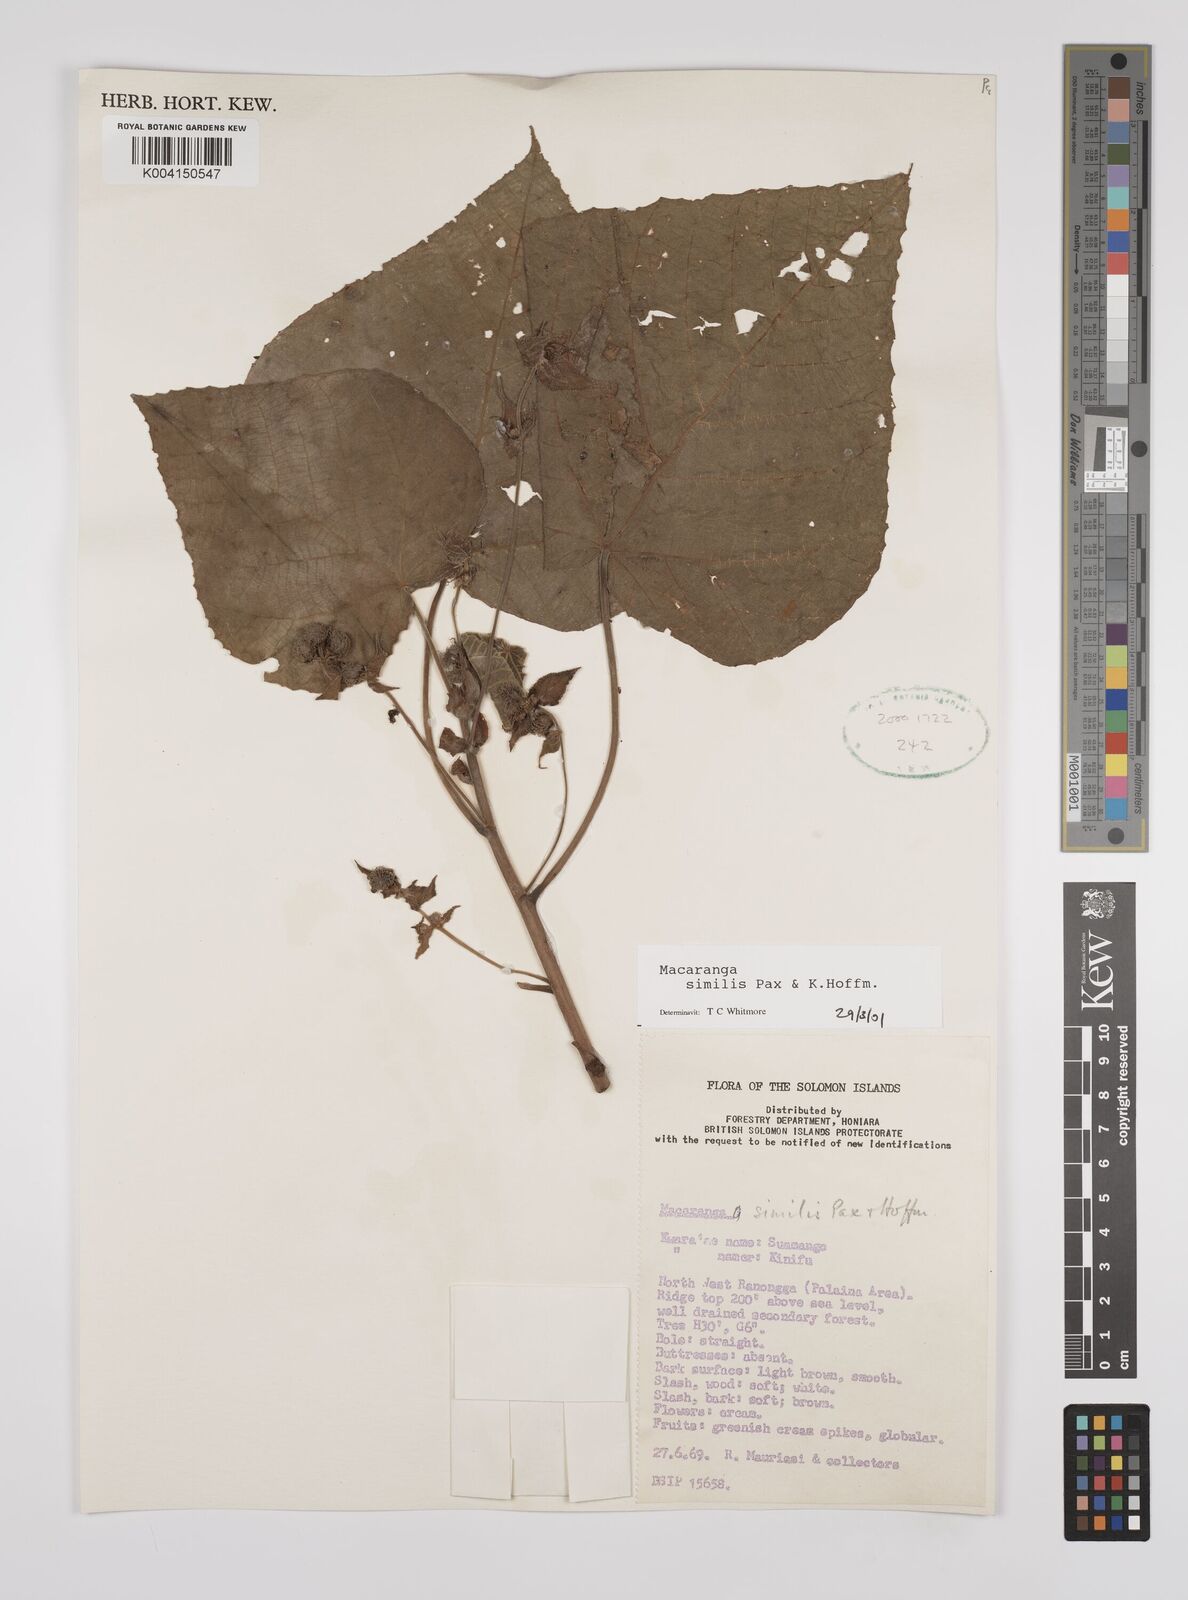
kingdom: Plantae
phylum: Tracheophyta
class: Magnoliopsida
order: Malpighiales
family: Euphorbiaceae
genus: Macaranga
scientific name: Macaranga similis
